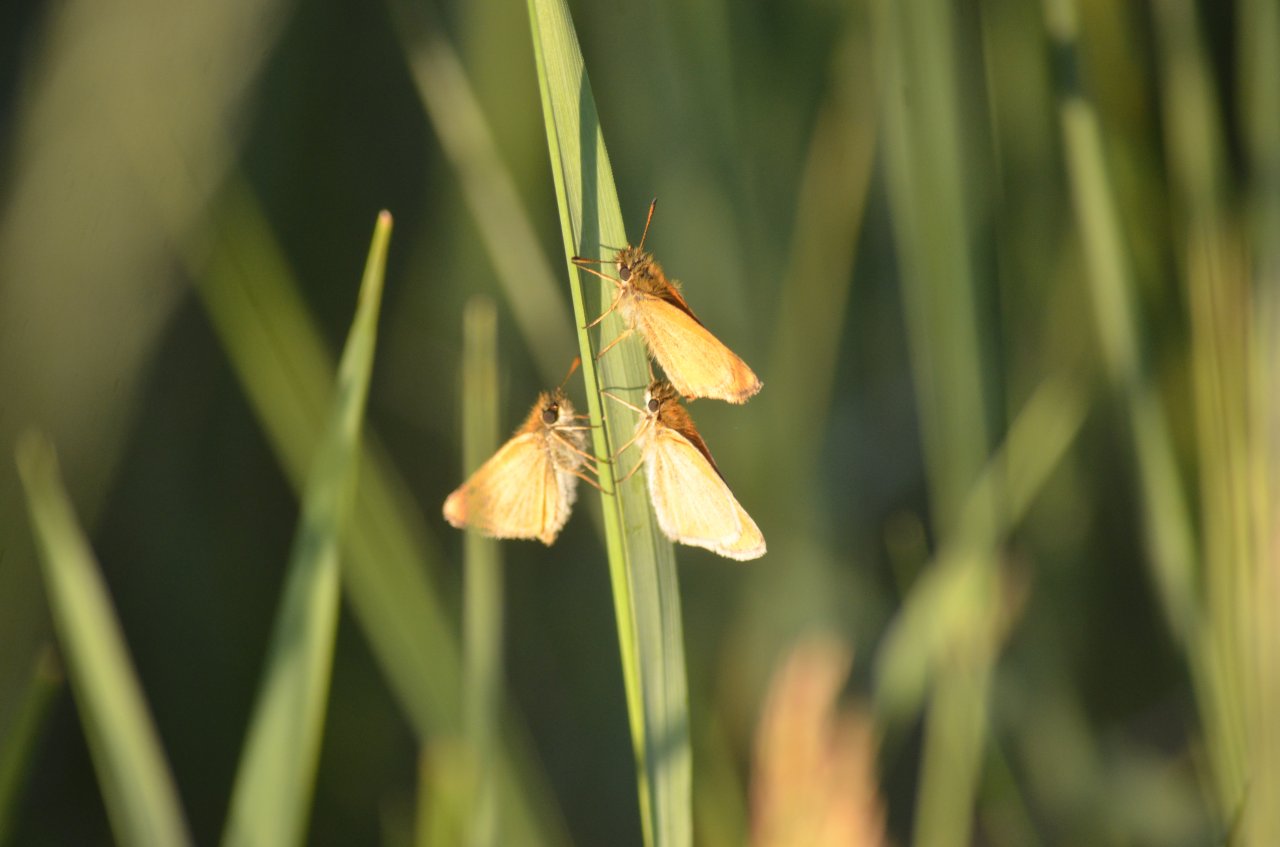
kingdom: Animalia
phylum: Arthropoda
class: Insecta
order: Lepidoptera
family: Hesperiidae
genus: Thymelicus
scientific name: Thymelicus lineola
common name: European Skipper
